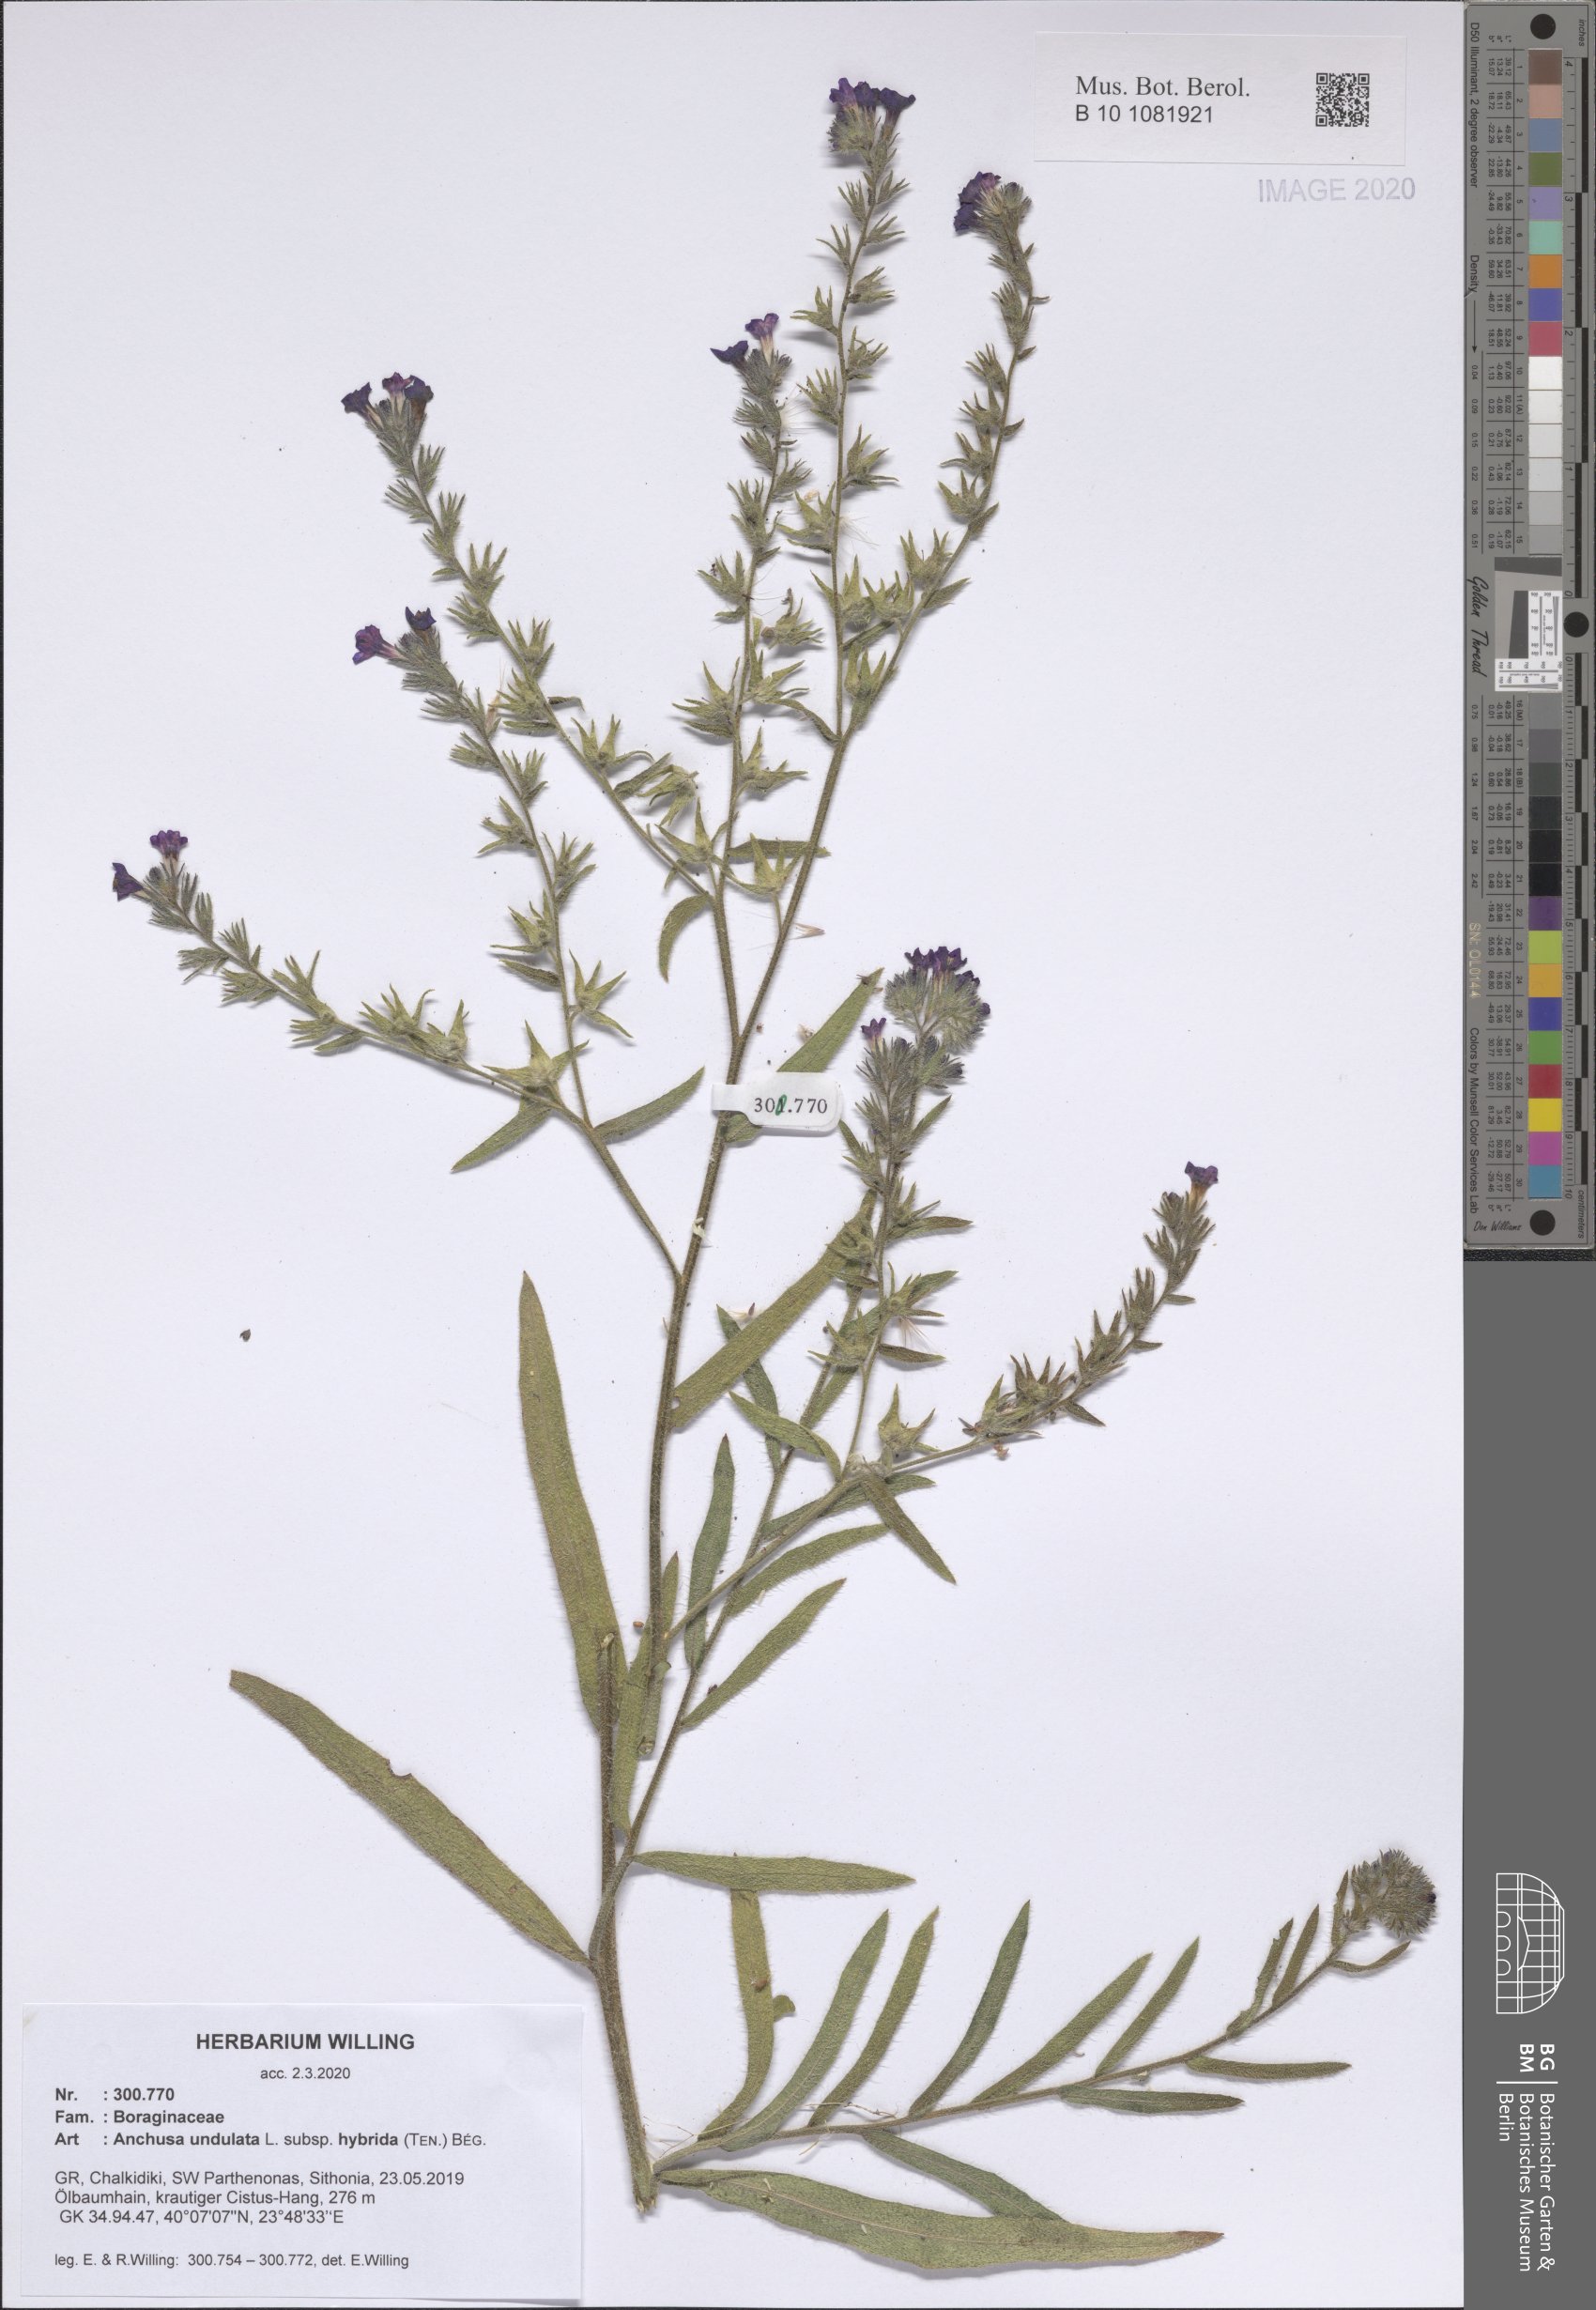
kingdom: Plantae
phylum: Tracheophyta
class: Magnoliopsida
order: Boraginales
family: Boraginaceae
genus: Anchusa
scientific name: Anchusa undulata
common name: Undulate alkanet
